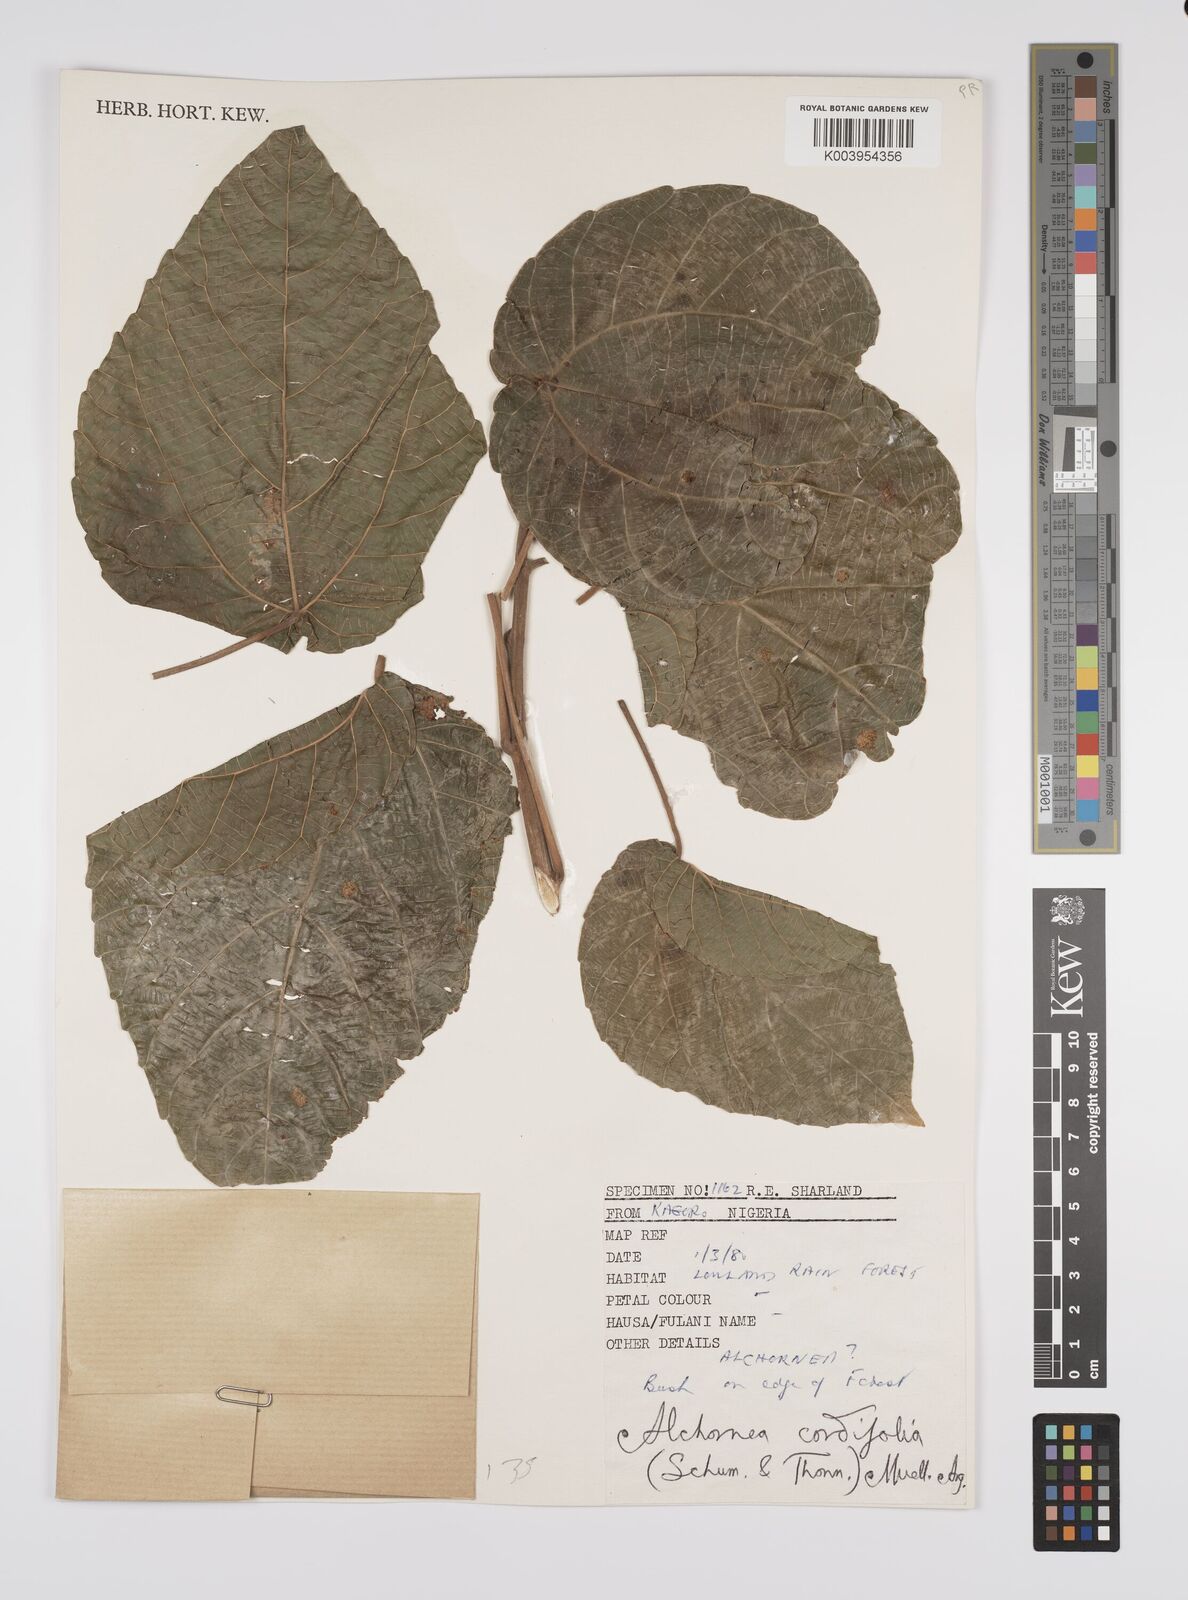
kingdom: Plantae
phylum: Tracheophyta
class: Magnoliopsida
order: Malpighiales
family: Euphorbiaceae
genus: Alchornea
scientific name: Alchornea cordifolia
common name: Christmasbush
